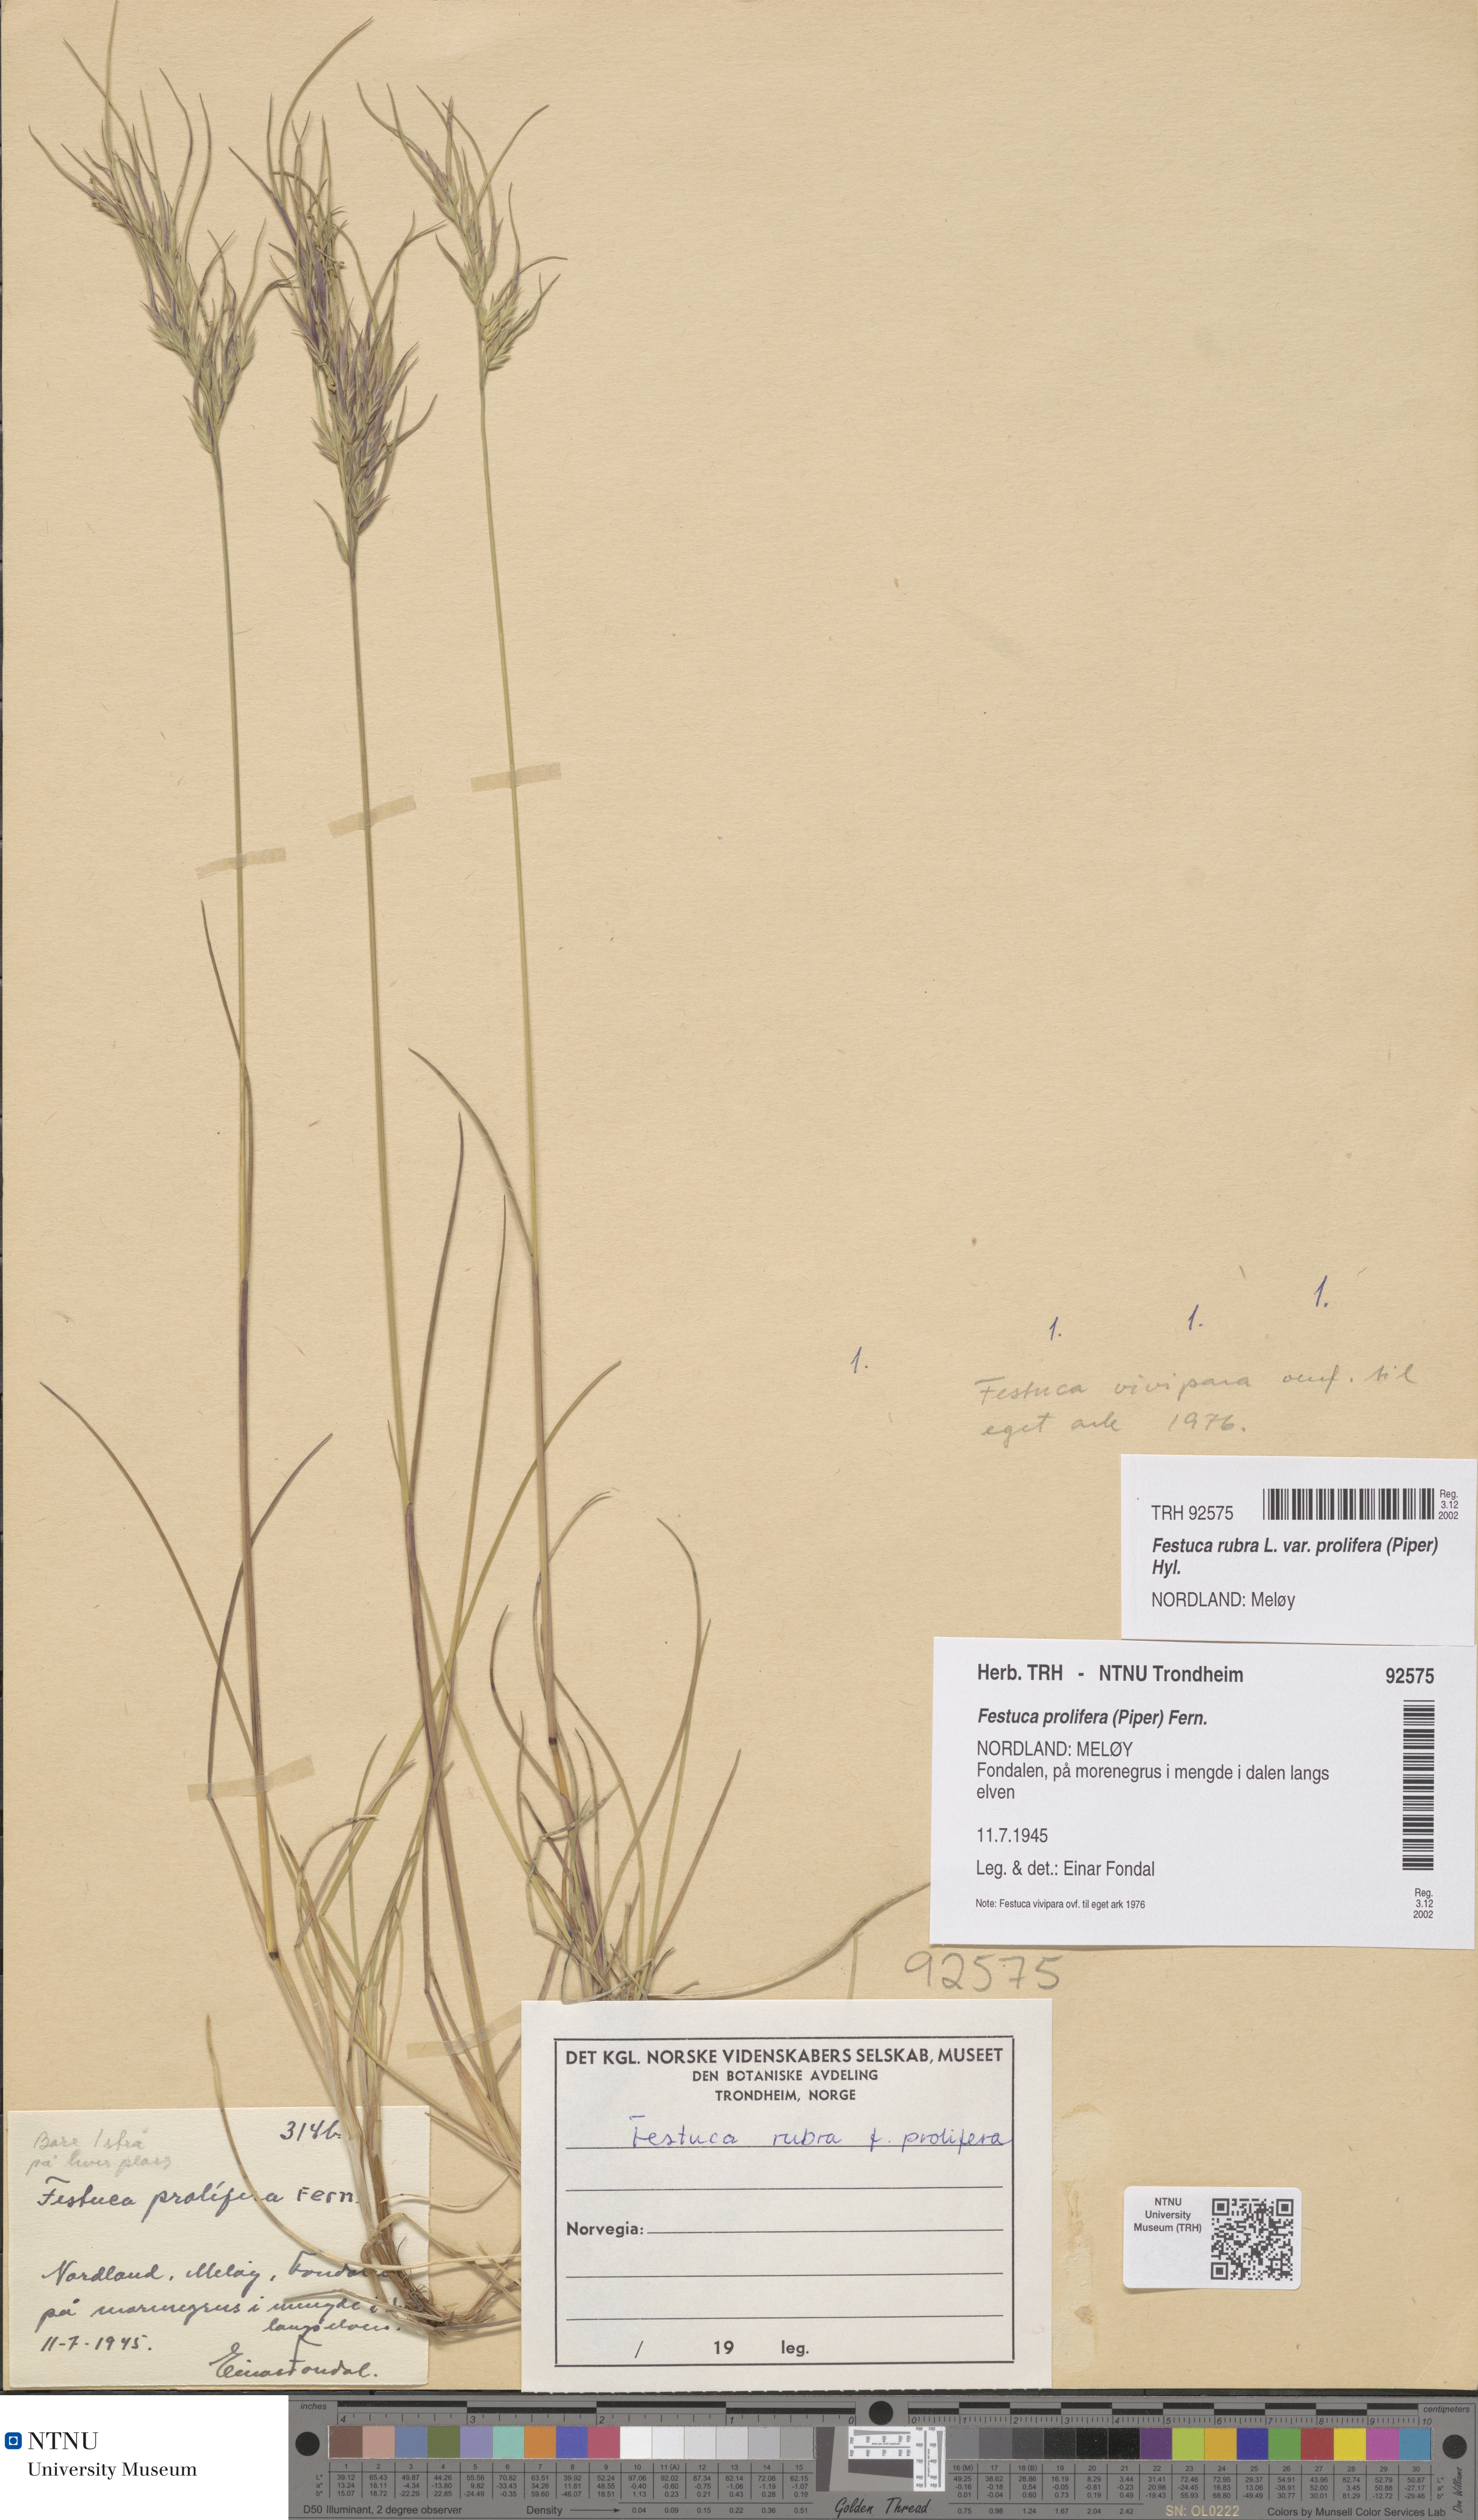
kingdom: Plantae
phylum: Tracheophyta
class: Liliopsida
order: Poales
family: Poaceae
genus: Festuca
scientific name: Festuca prolifera
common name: Proliferous fescue
